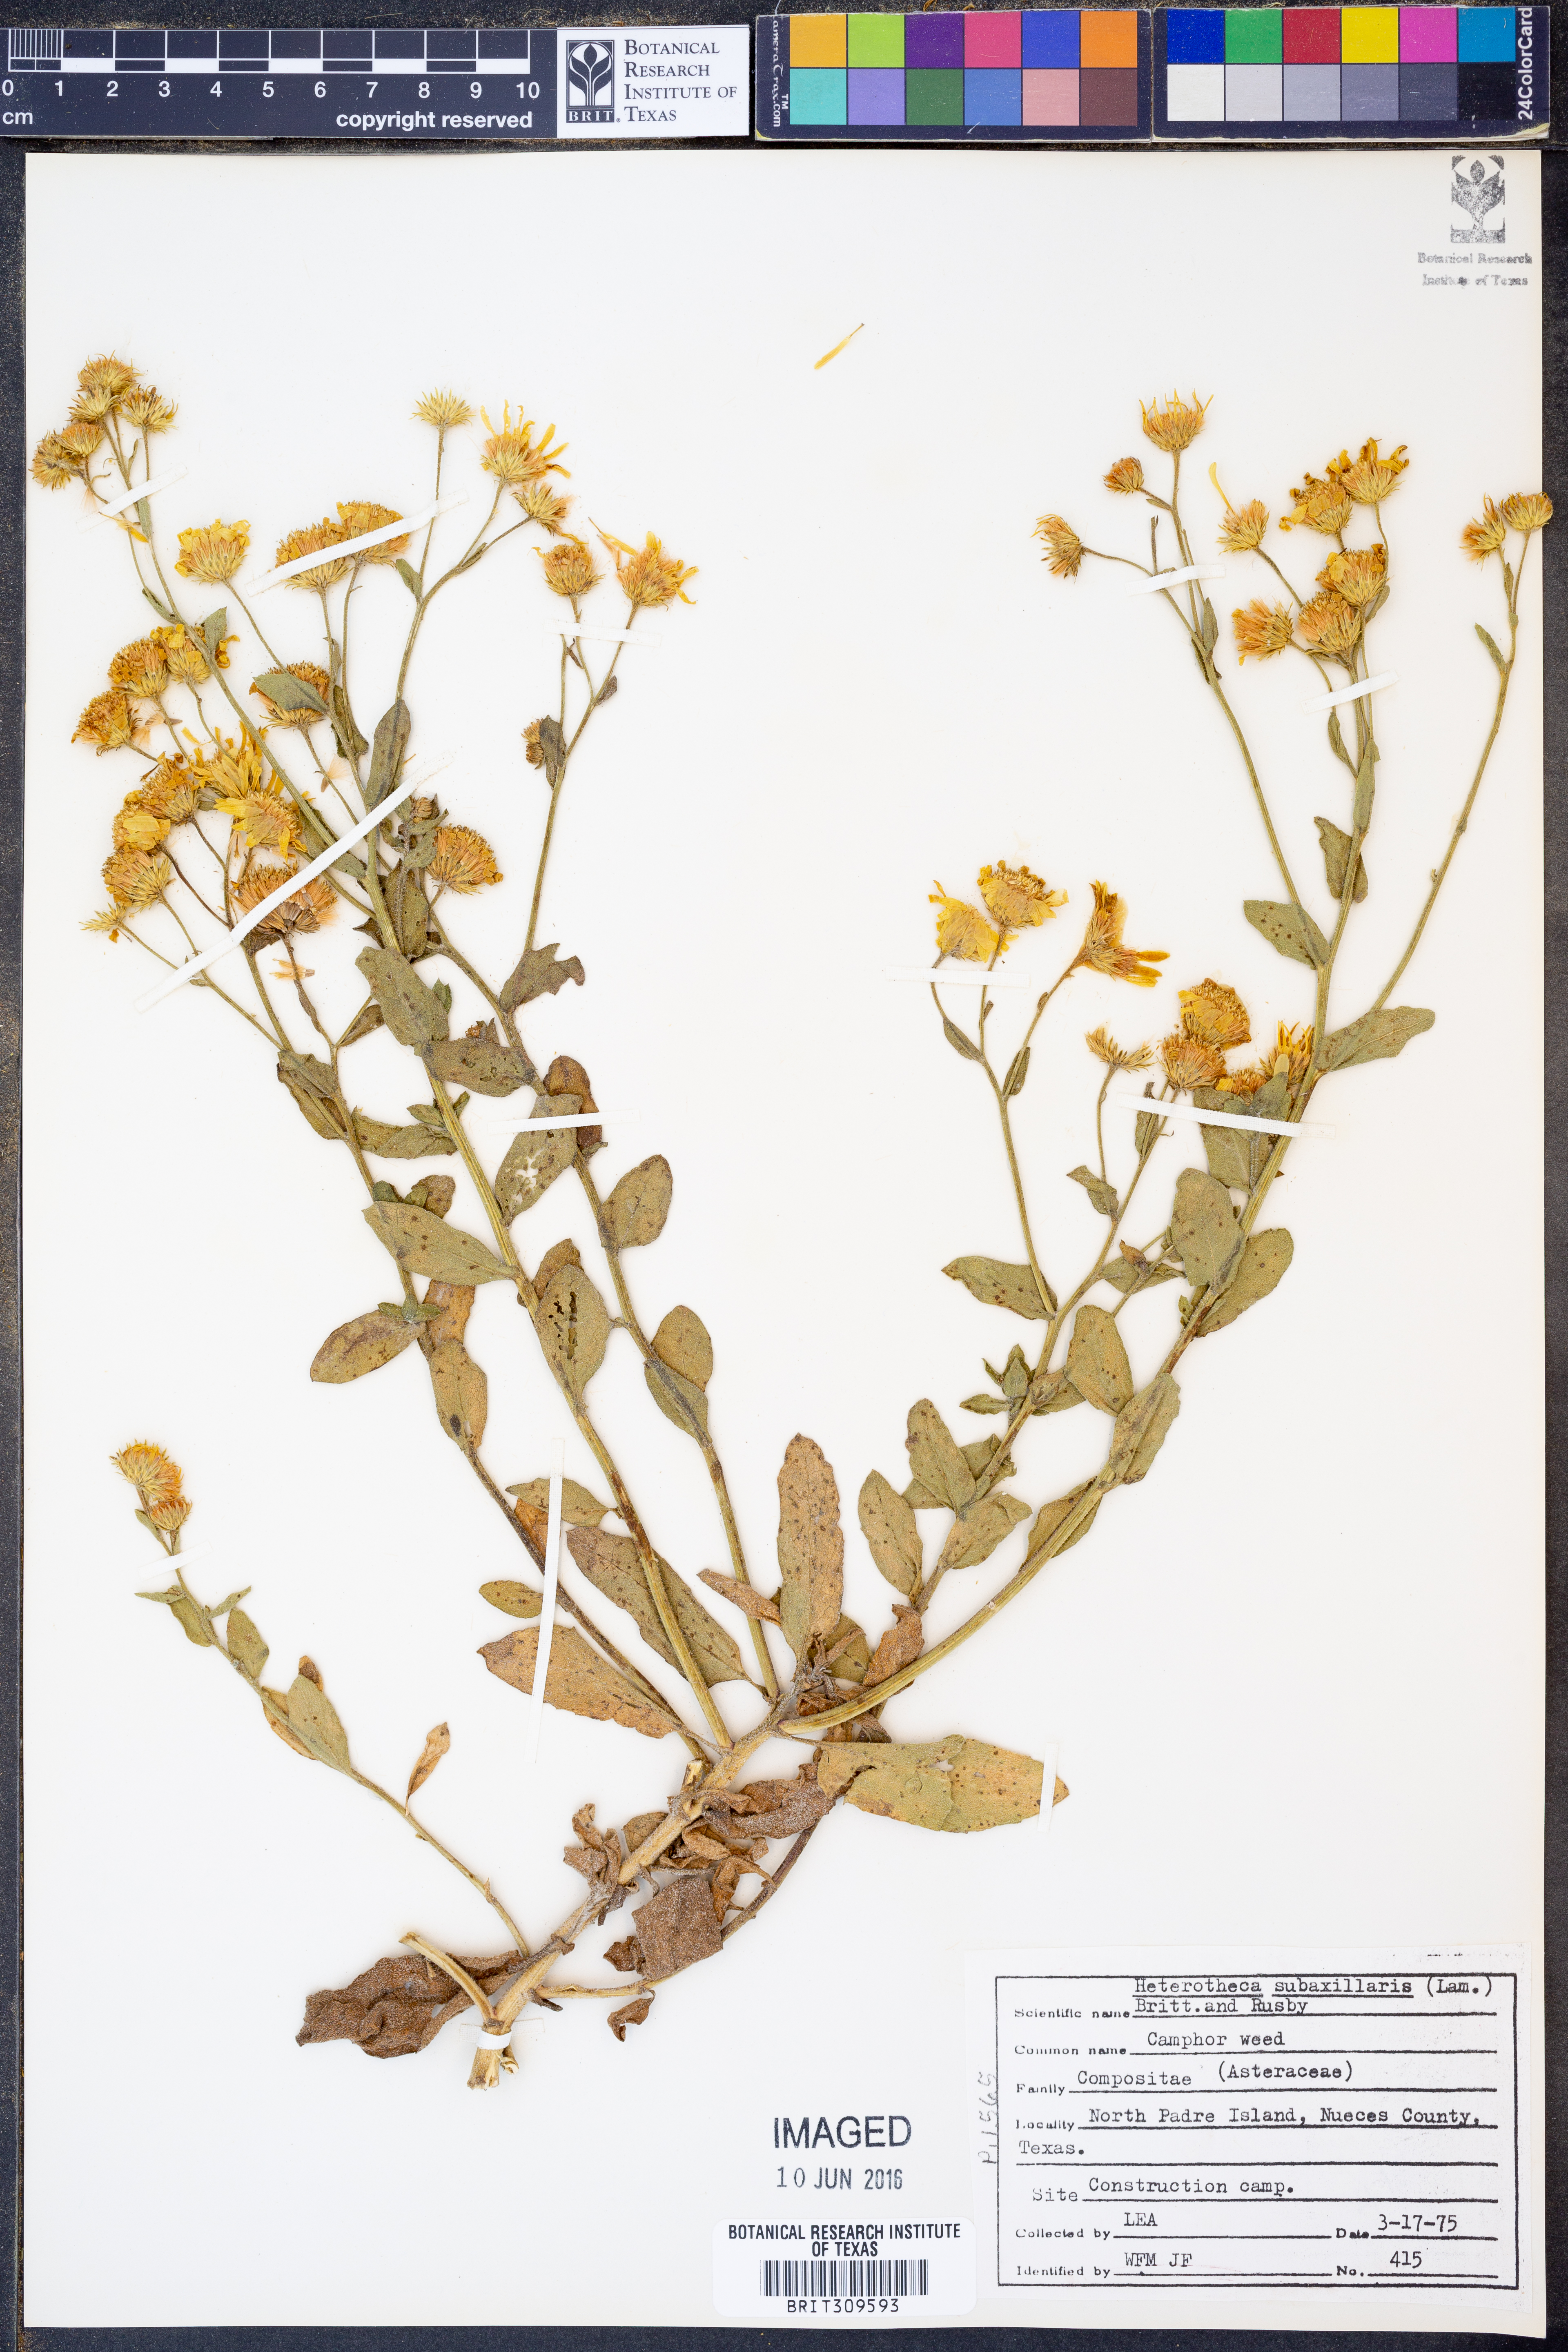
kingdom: Plantae
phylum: Tracheophyta
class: Magnoliopsida
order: Asterales
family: Asteraceae
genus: Heterotheca
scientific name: Heterotheca subaxillaris
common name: Camphorweed
